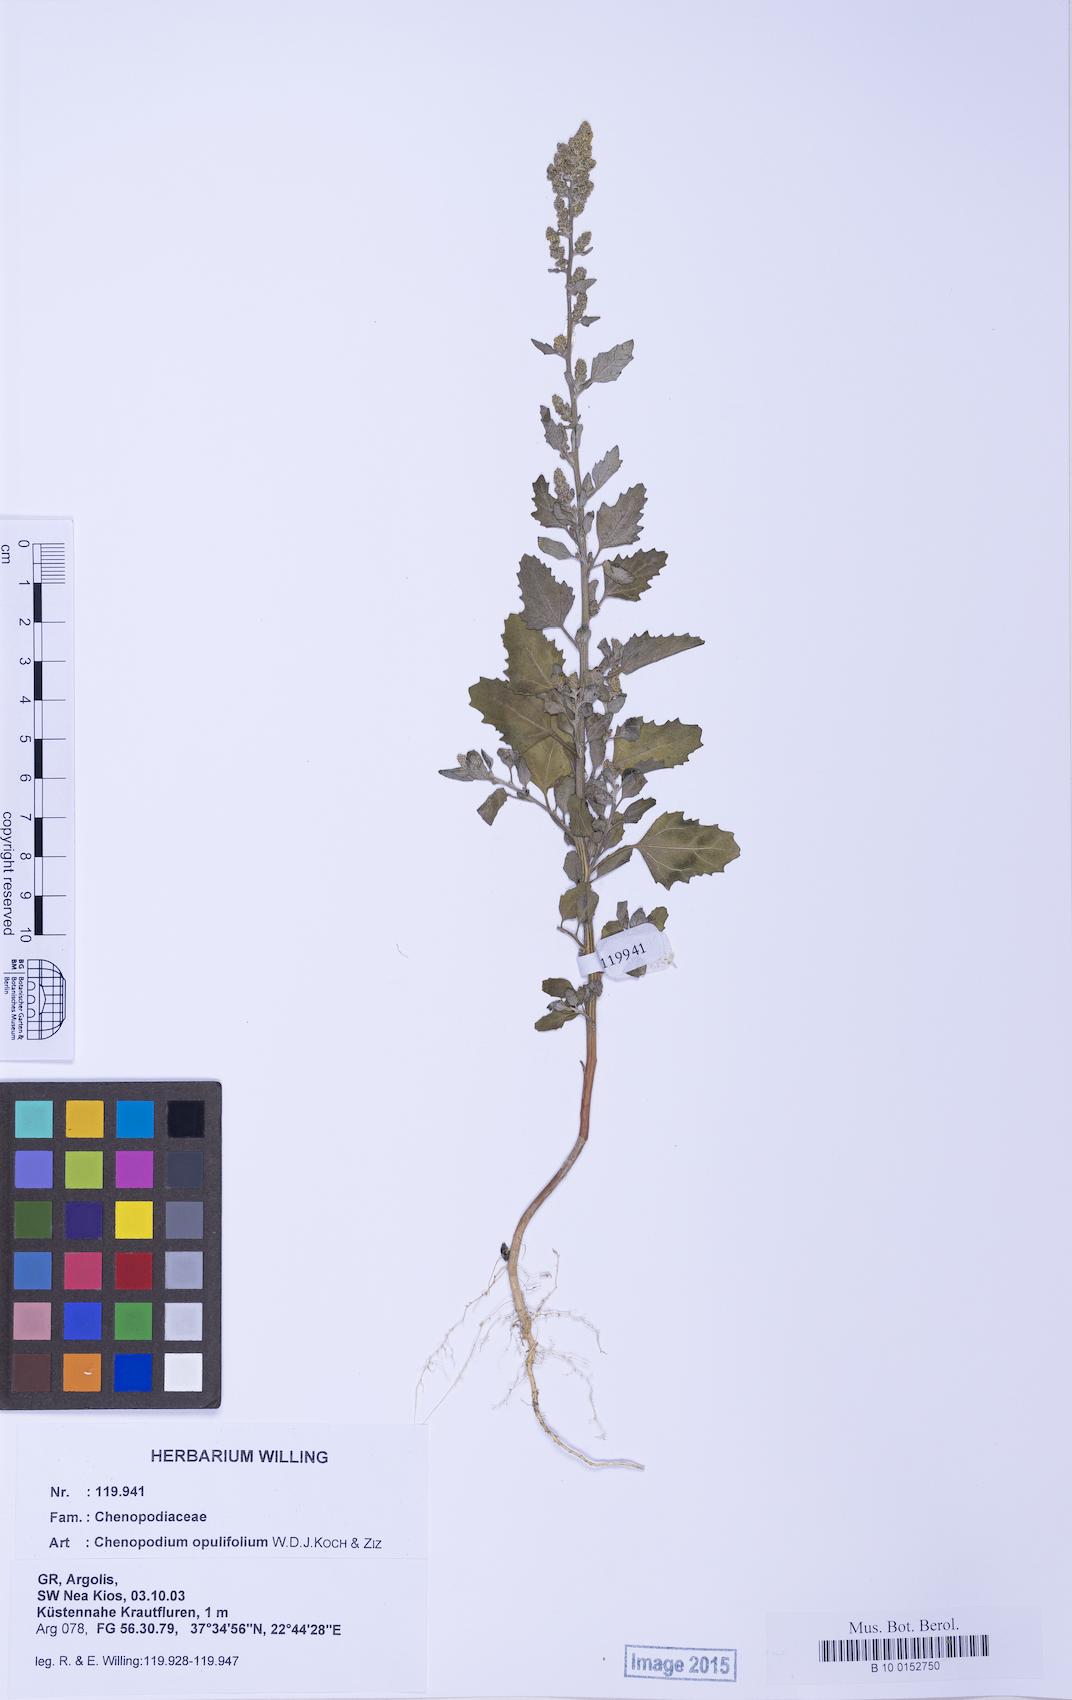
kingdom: Plantae
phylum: Tracheophyta
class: Magnoliopsida
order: Caryophyllales
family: Amaranthaceae
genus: Chenopodium
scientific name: Chenopodium album
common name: Fat-hen
